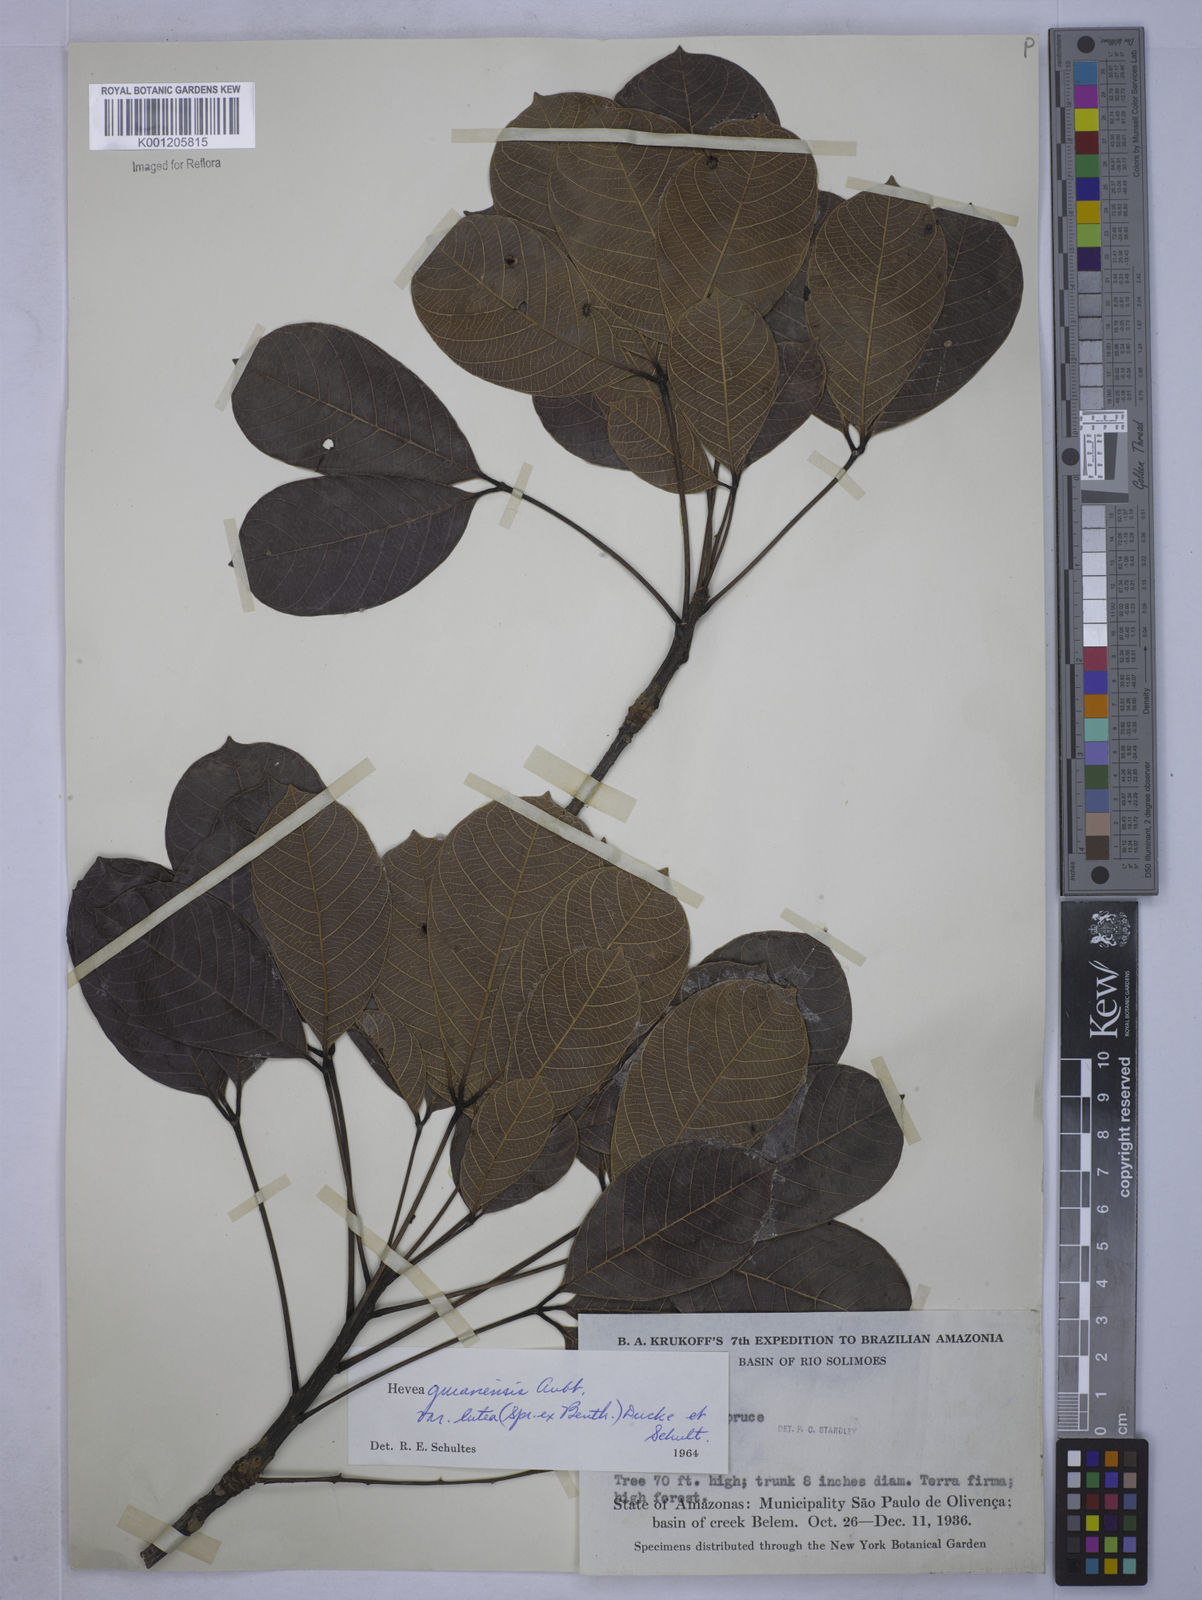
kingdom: Plantae
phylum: Tracheophyta
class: Magnoliopsida
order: Malpighiales
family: Euphorbiaceae
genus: Hevea
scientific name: Hevea guianensis
